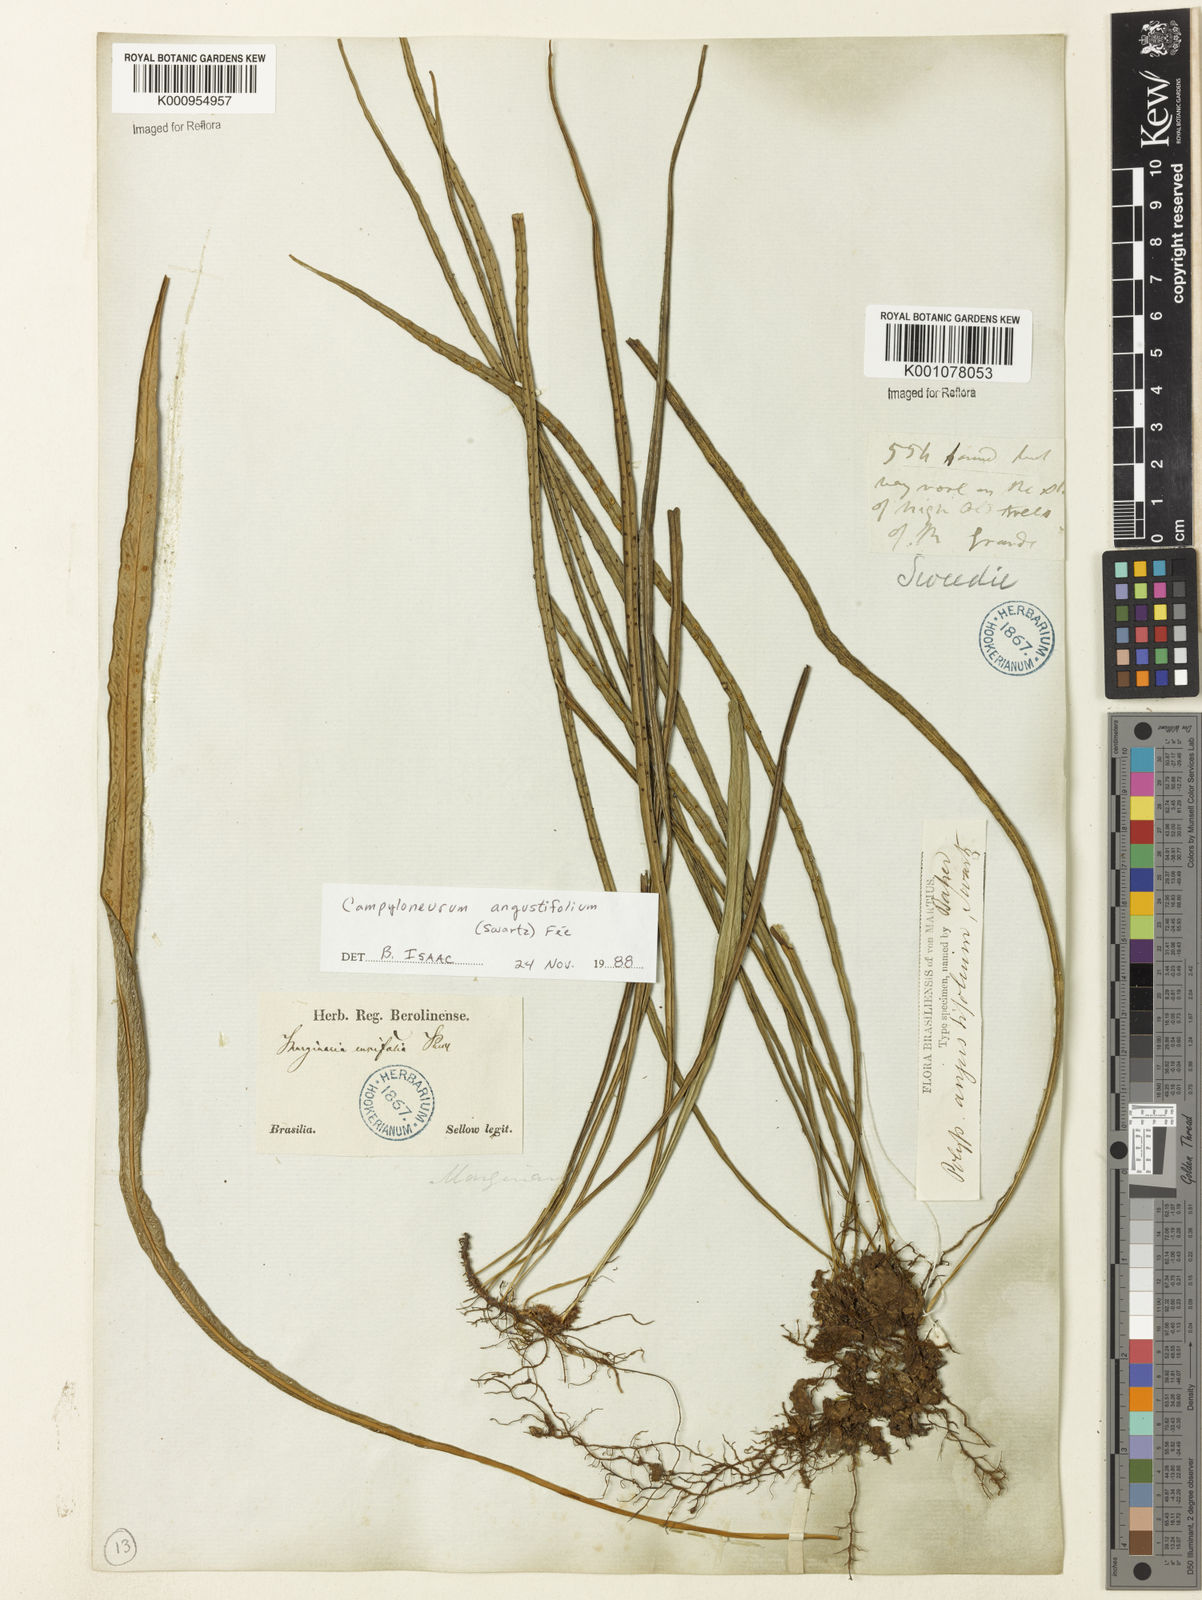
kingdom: Plantae
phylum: Tracheophyta
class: Polypodiopsida
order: Polypodiales
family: Polypodiaceae
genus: Campyloneurum
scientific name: Campyloneurum
